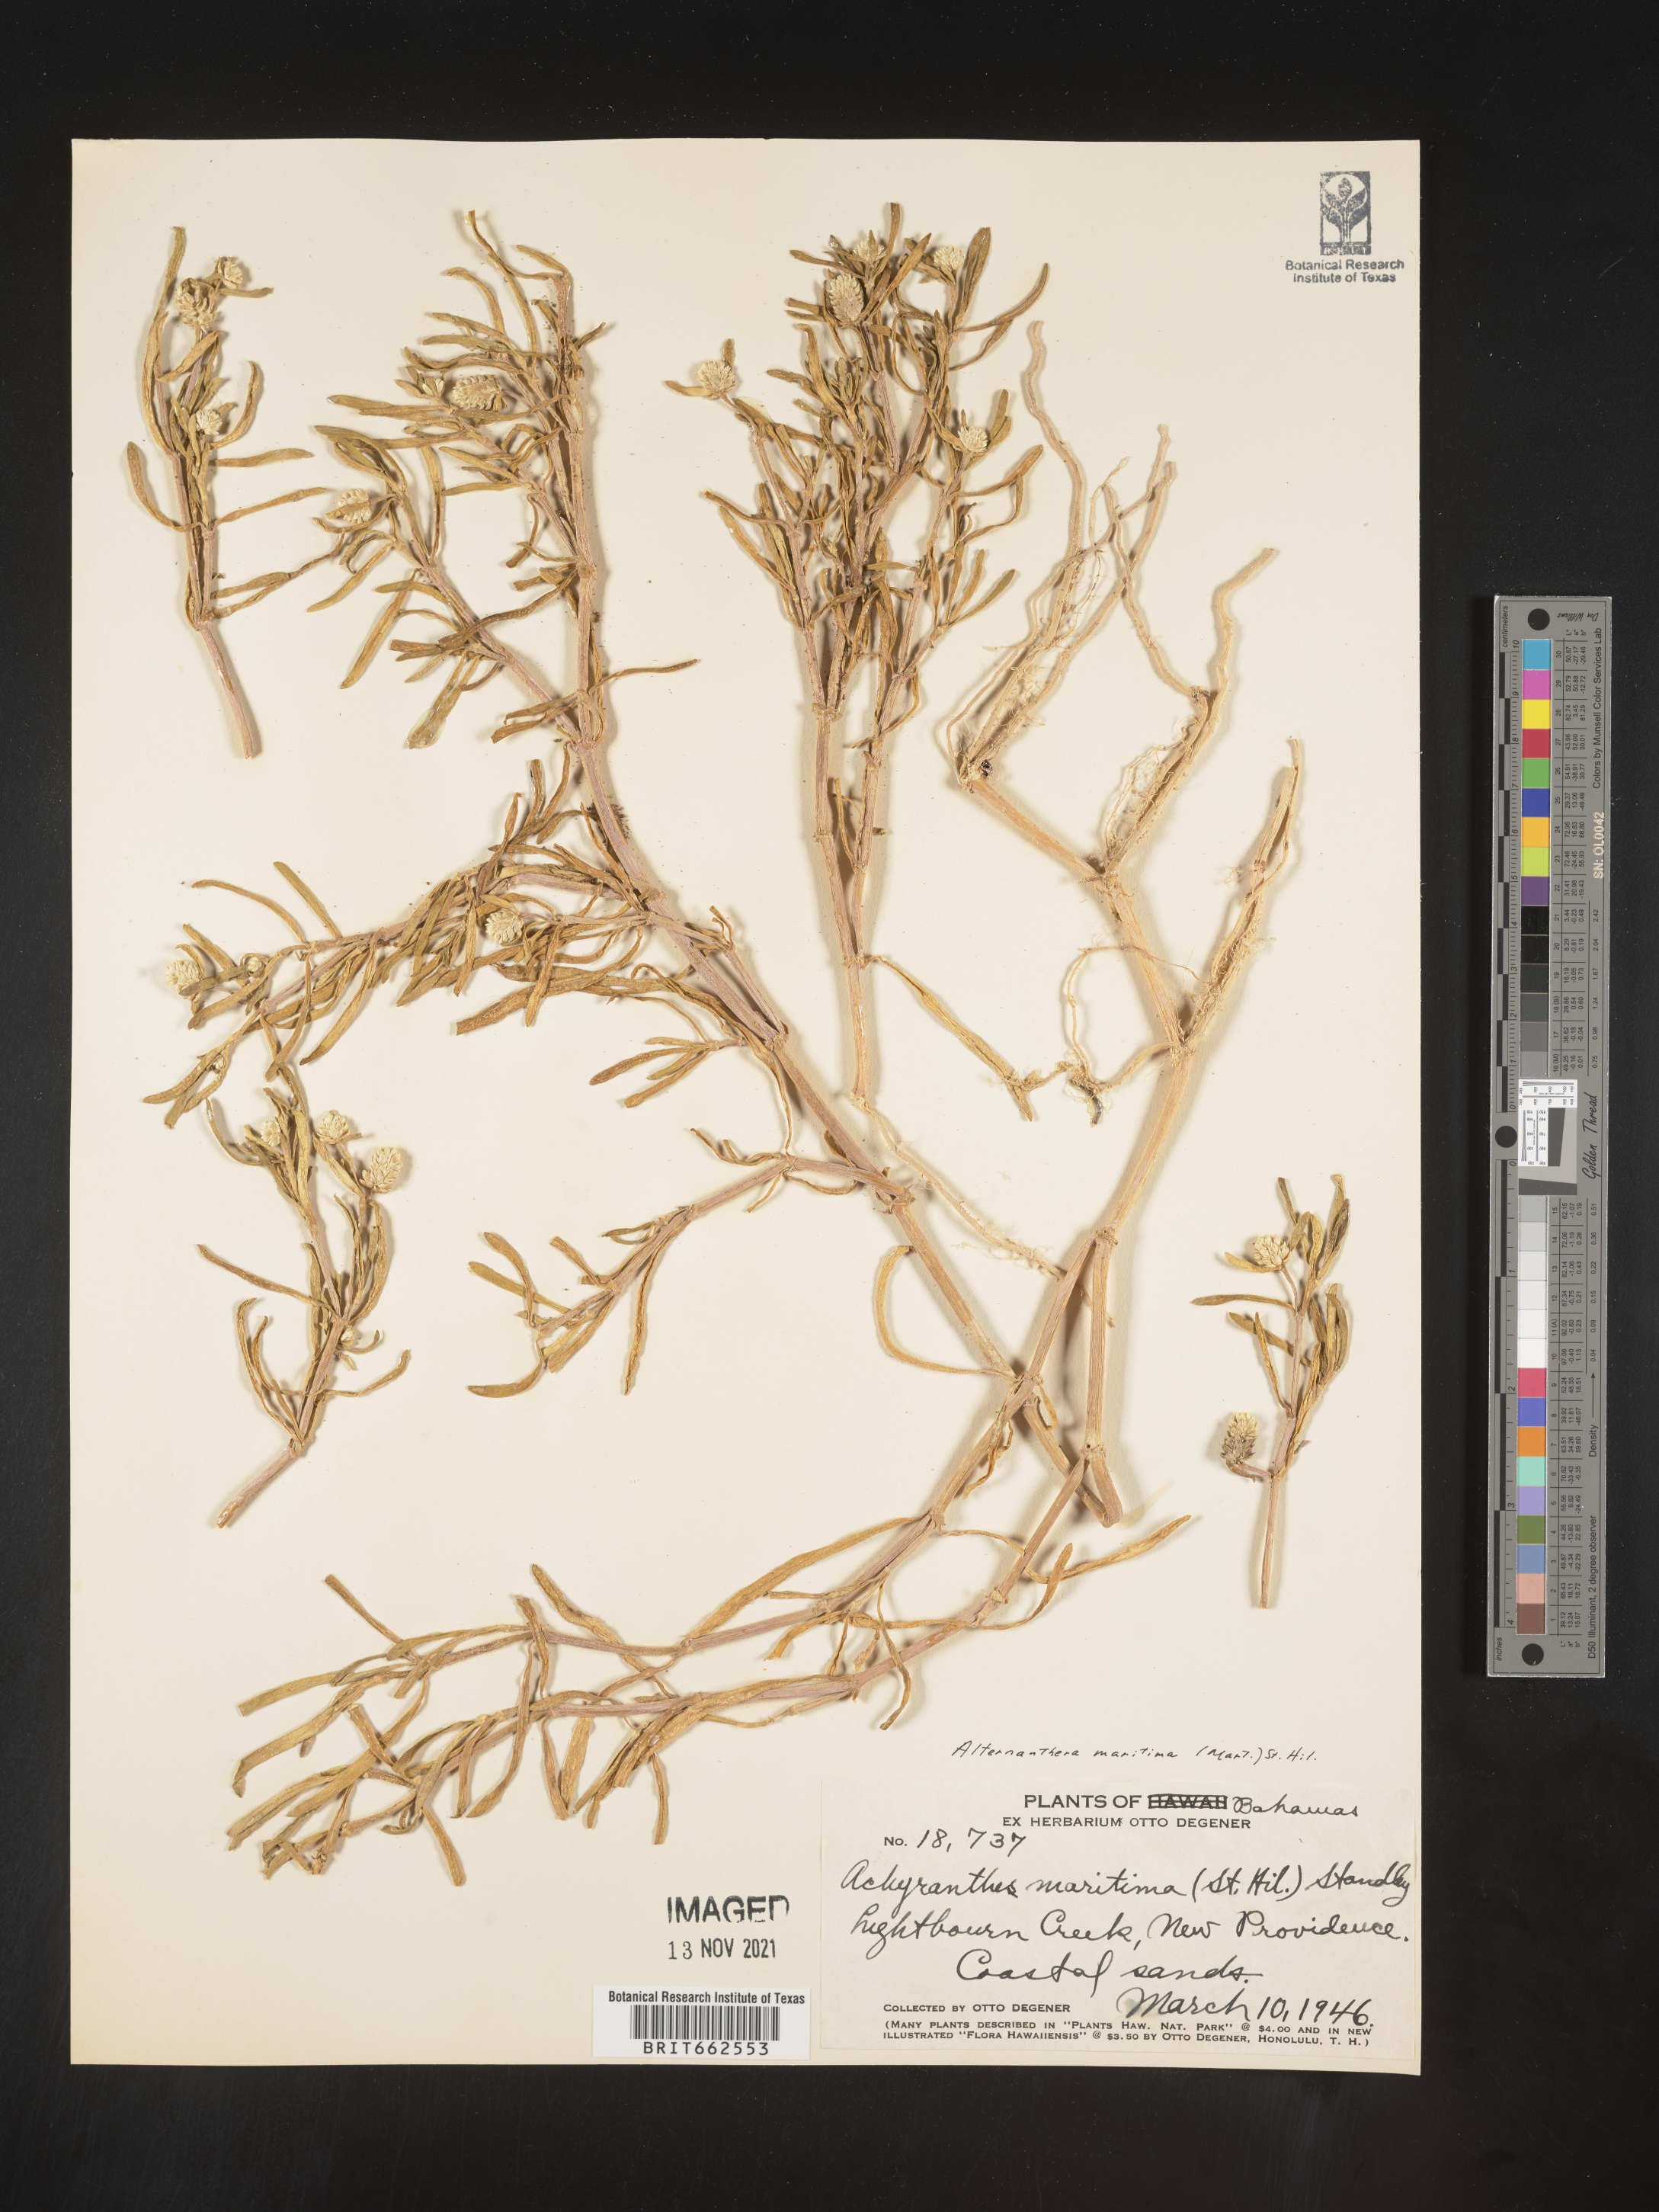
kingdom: Plantae
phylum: Tracheophyta
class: Magnoliopsida
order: Caryophyllales
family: Amaranthaceae
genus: Alternanthera
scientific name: Alternanthera
